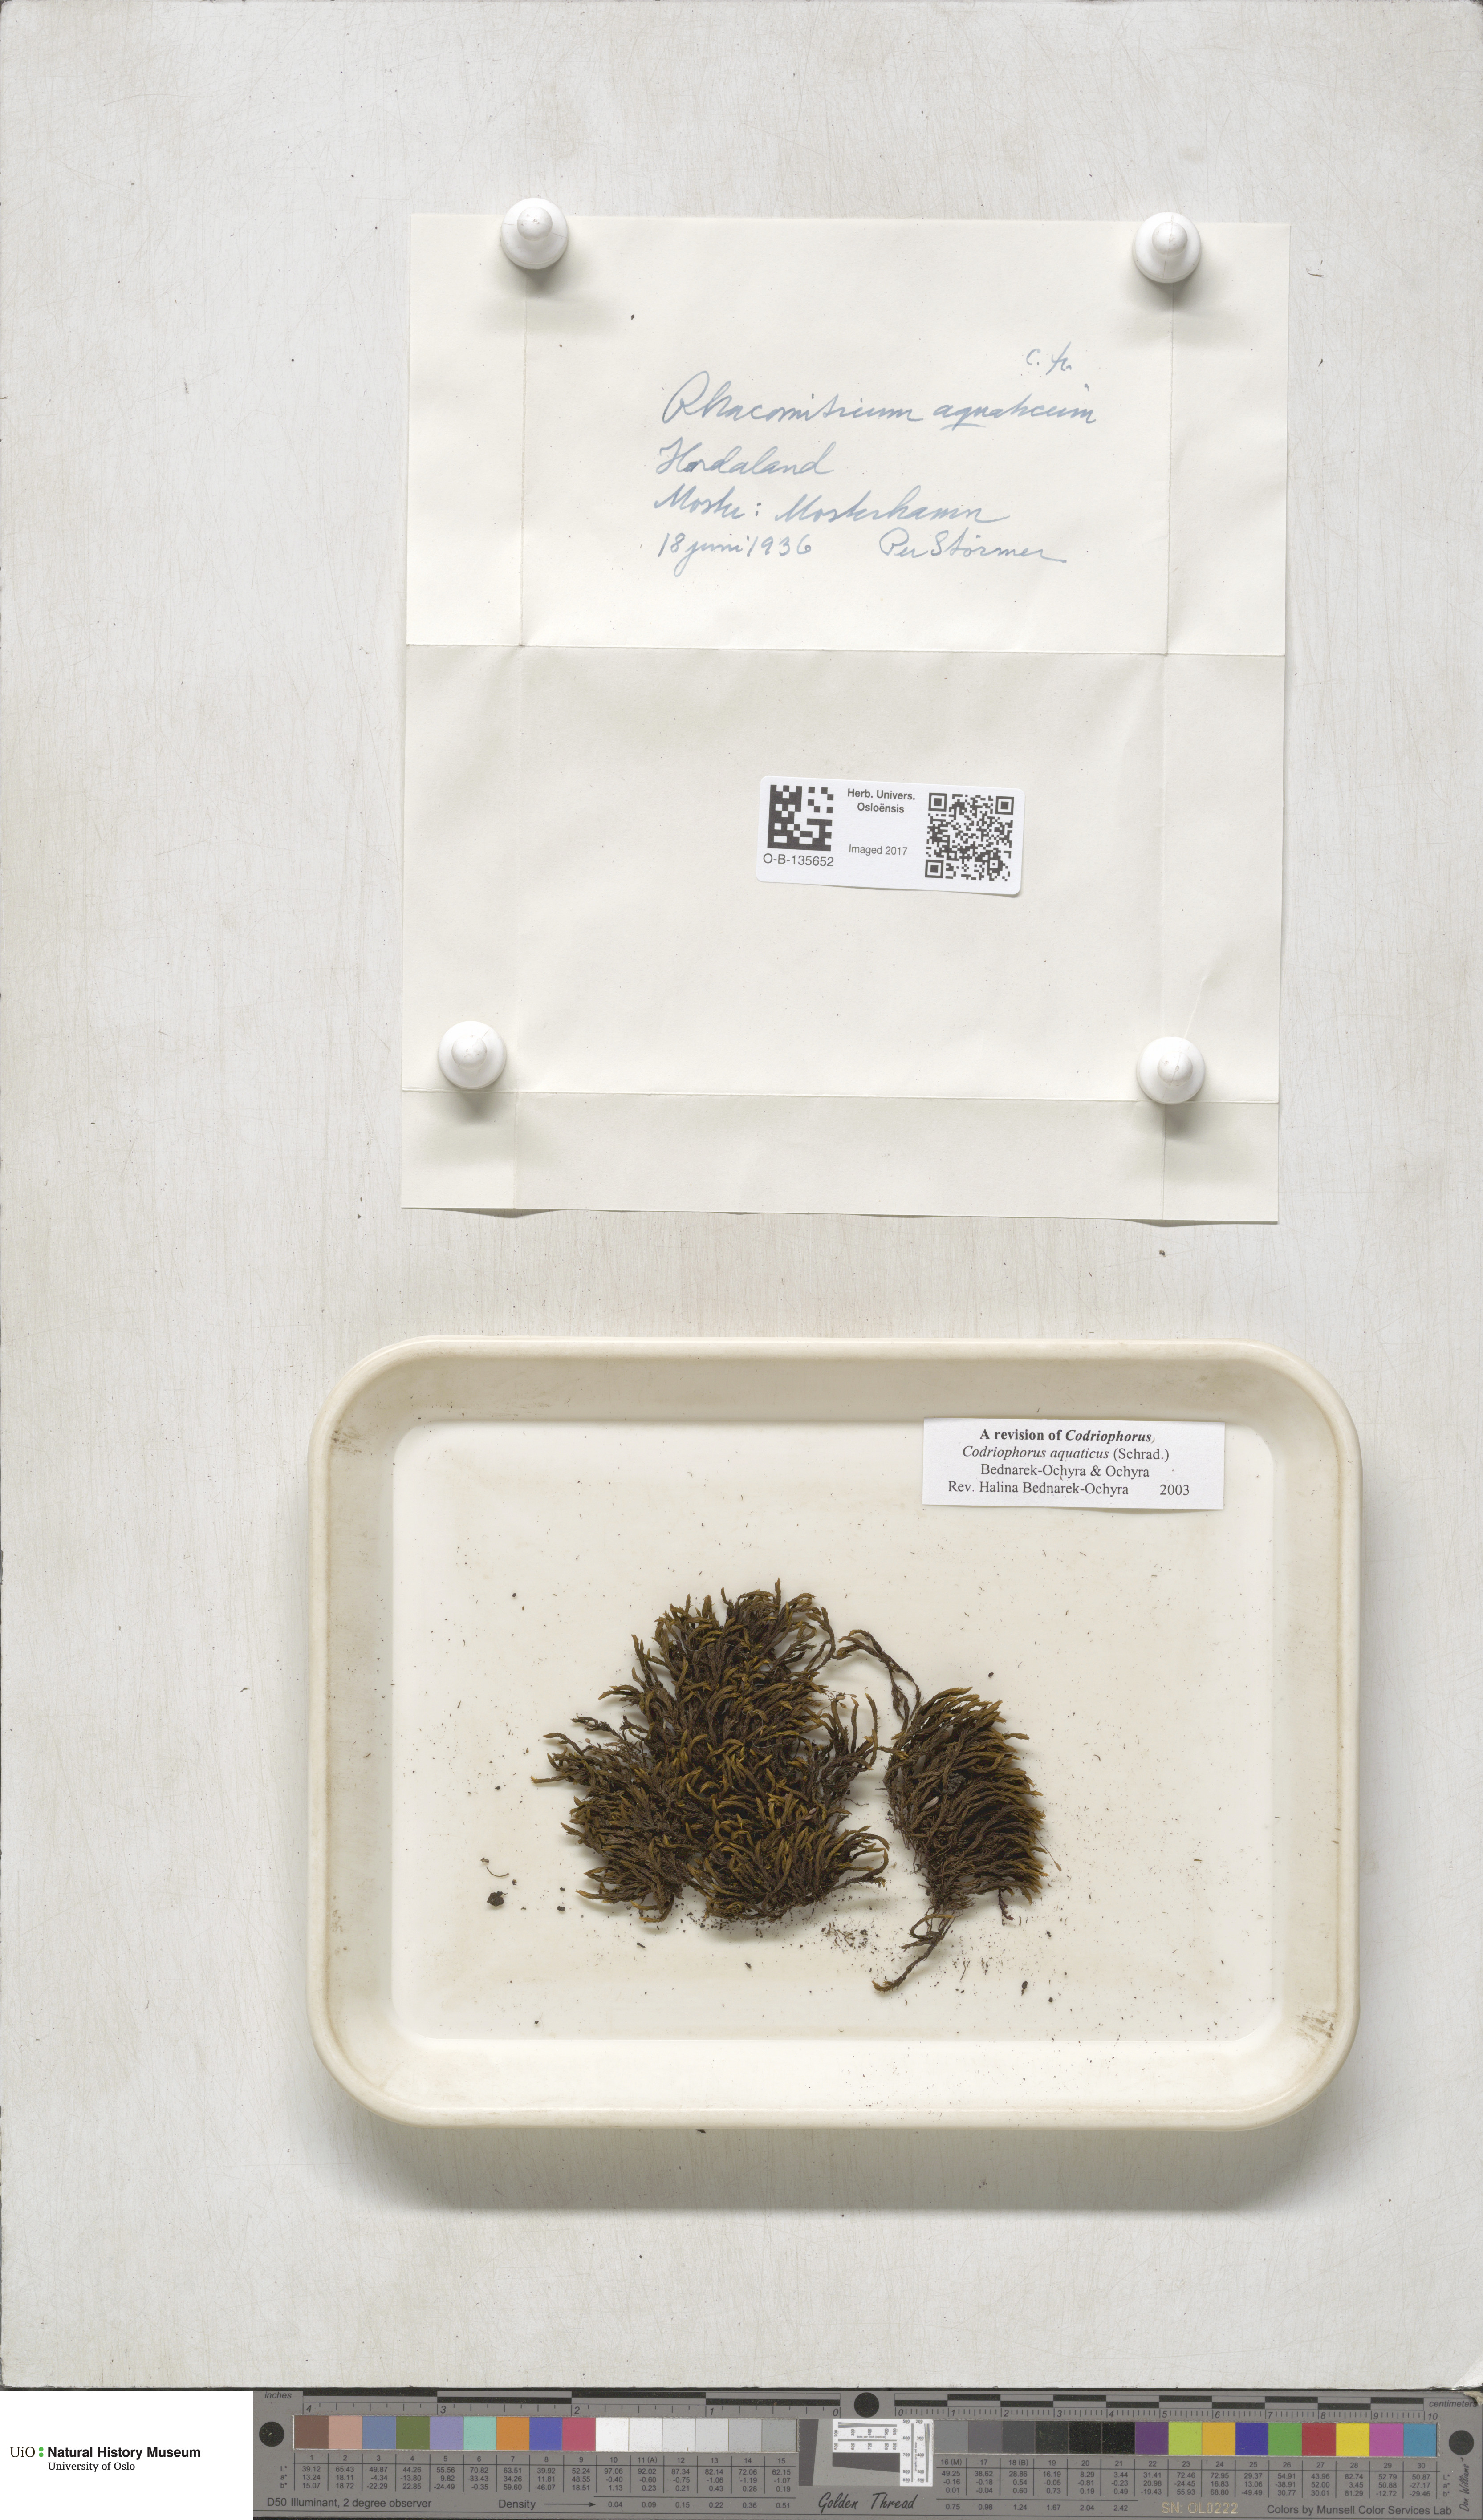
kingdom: Plantae
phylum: Bryophyta
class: Bryopsida
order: Grimmiales
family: Grimmiaceae
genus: Codriophorus
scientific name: Codriophorus aquaticus
